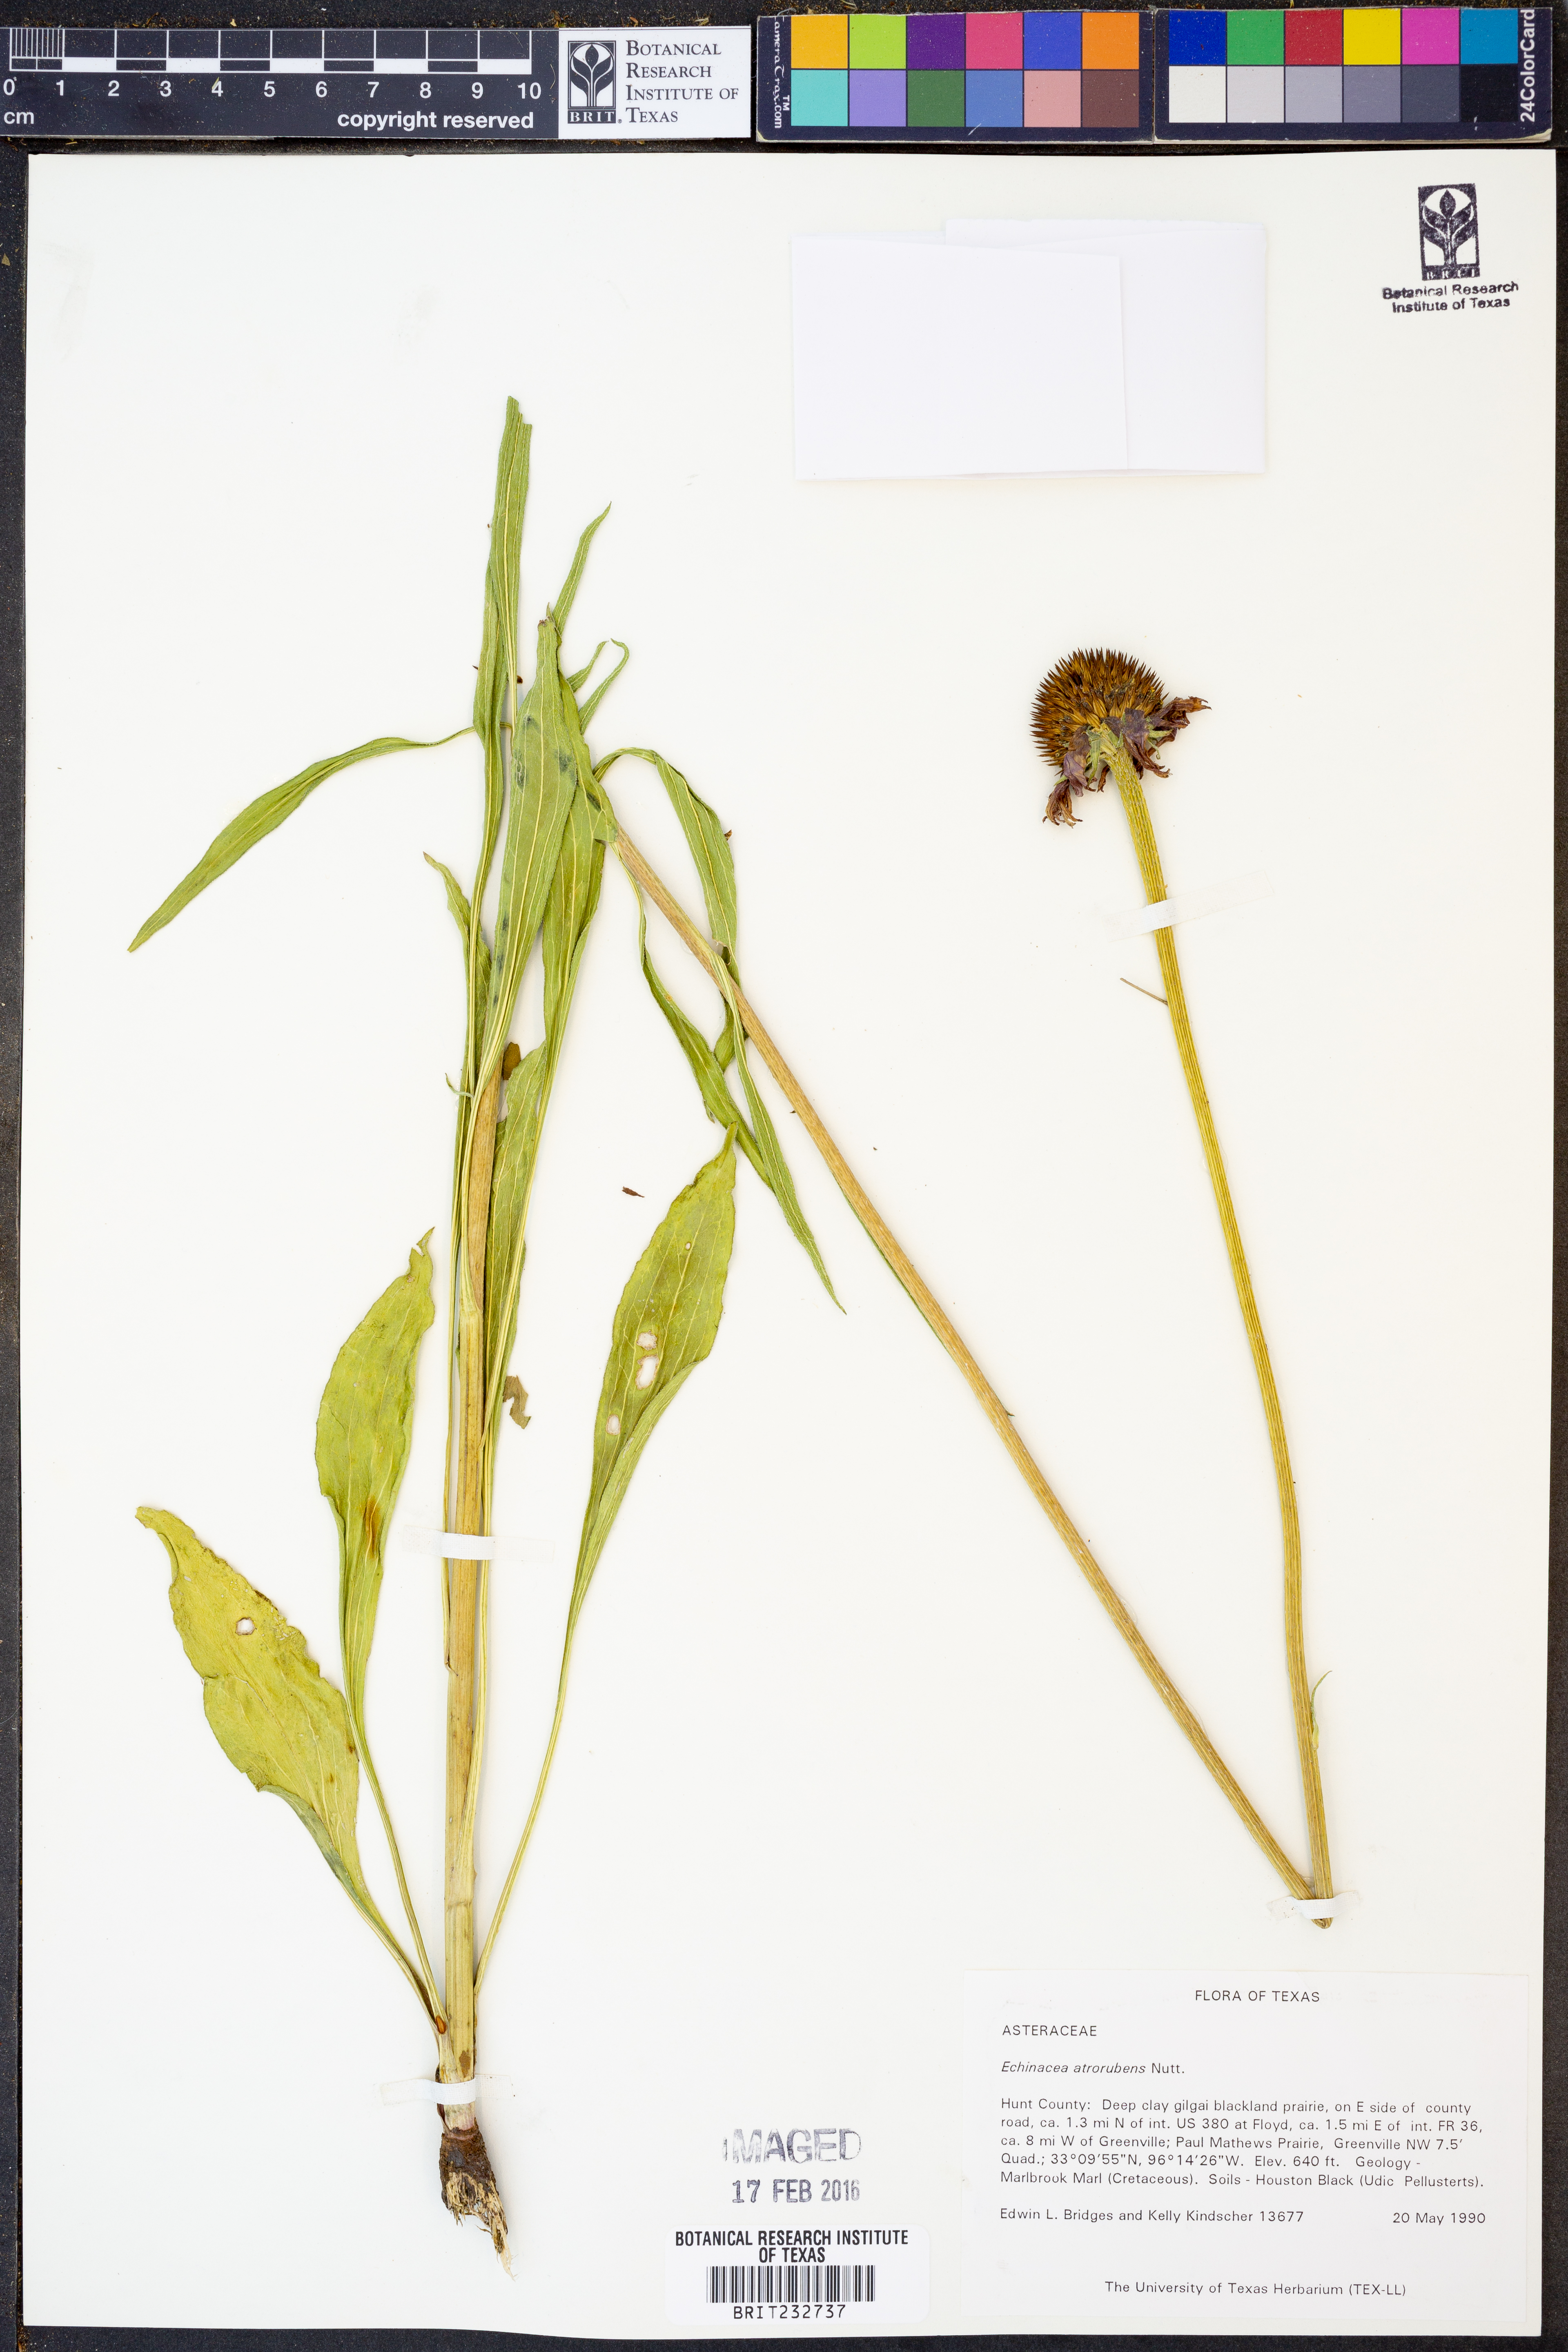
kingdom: Plantae
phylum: Tracheophyta
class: Magnoliopsida
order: Asterales
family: Asteraceae
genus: Echinacea
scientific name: Echinacea atrorubens
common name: Topeka purple-coneflower
